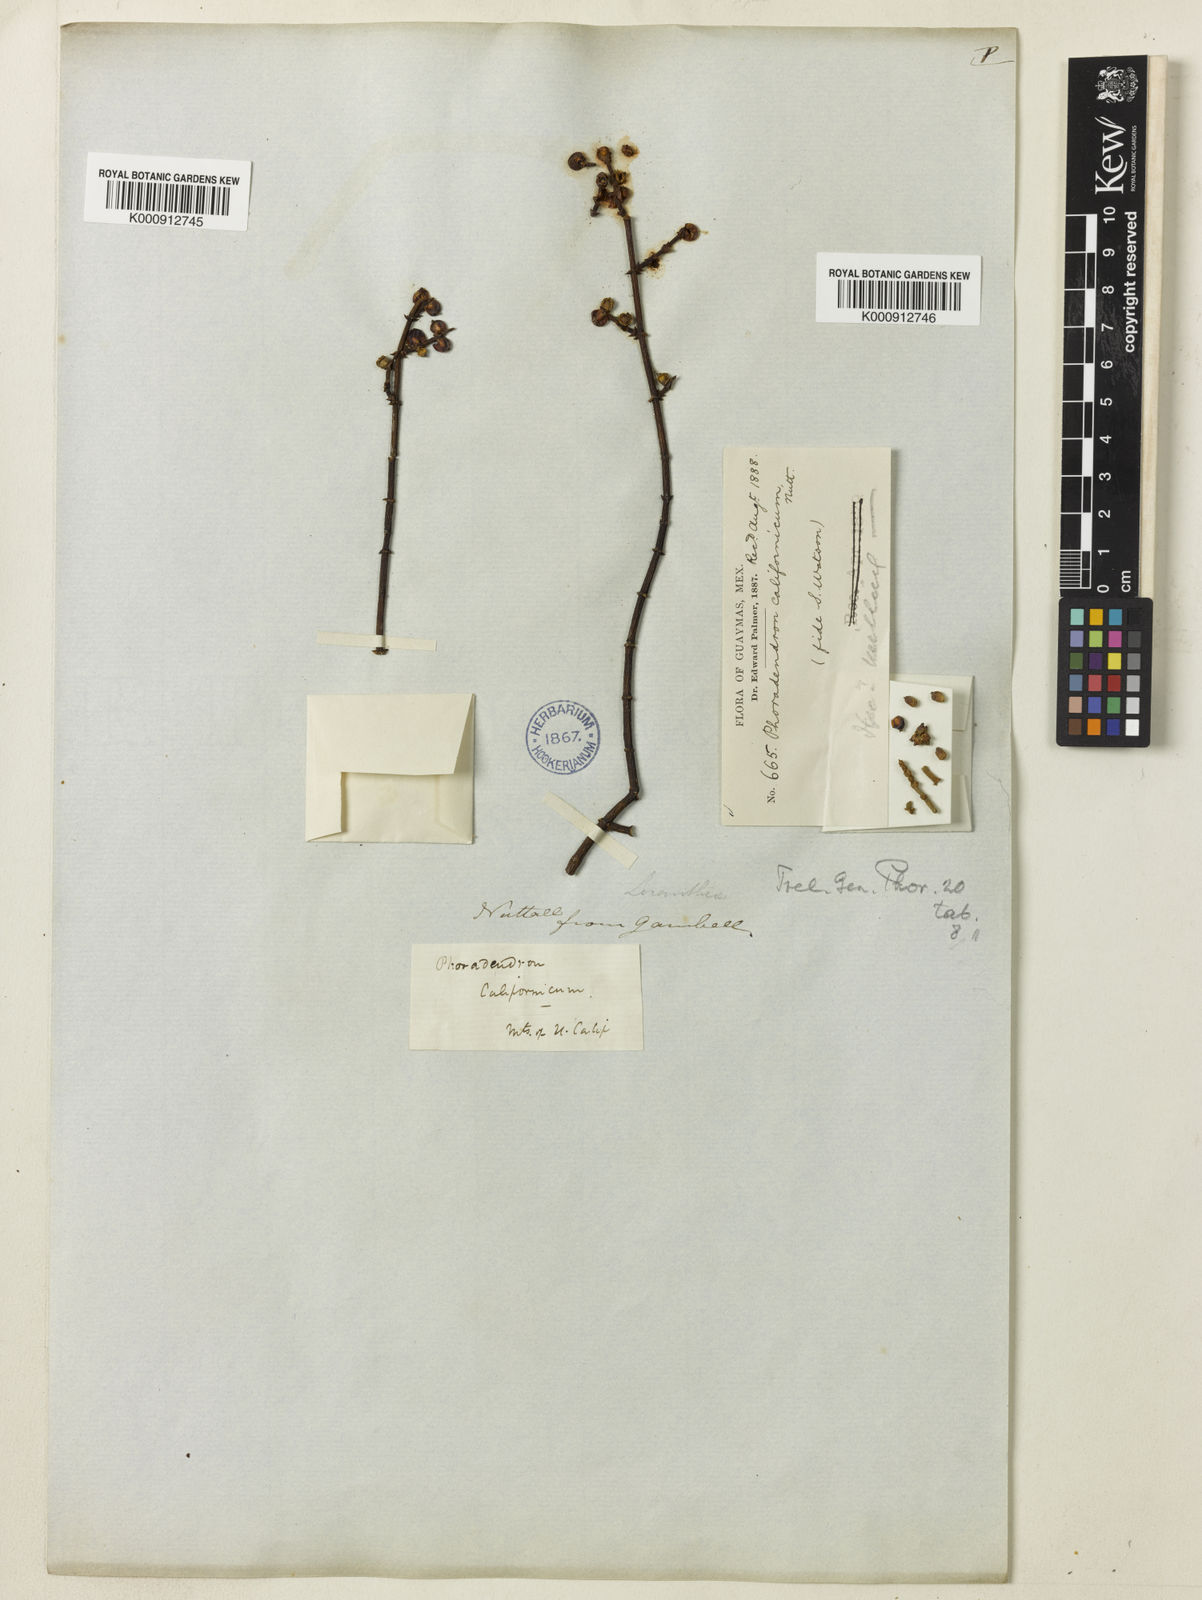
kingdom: Plantae
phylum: Tracheophyta
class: Magnoliopsida
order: Santalales
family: Viscaceae
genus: Phoradendron
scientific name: Phoradendron californicum
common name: Acacia mistletoe
